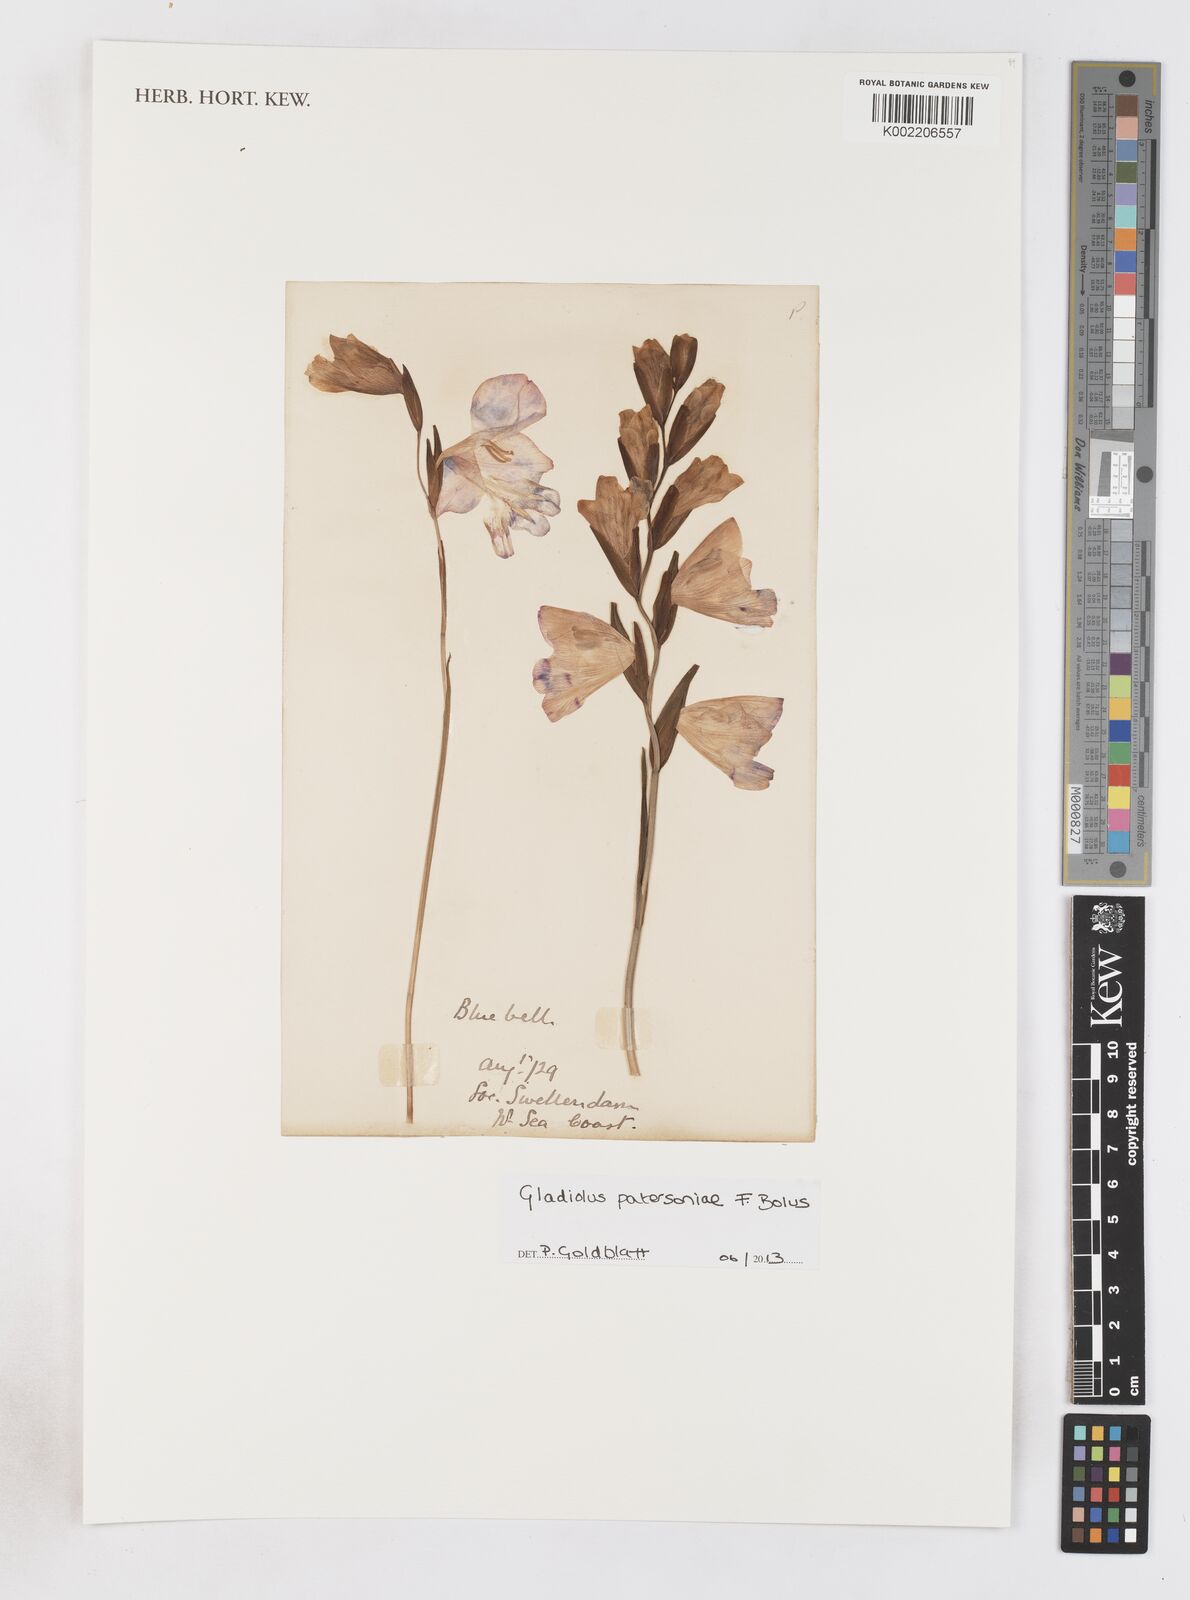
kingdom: Plantae
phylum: Tracheophyta
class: Liliopsida
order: Asparagales
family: Iridaceae
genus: Gladiolus
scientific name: Gladiolus patersoniae
